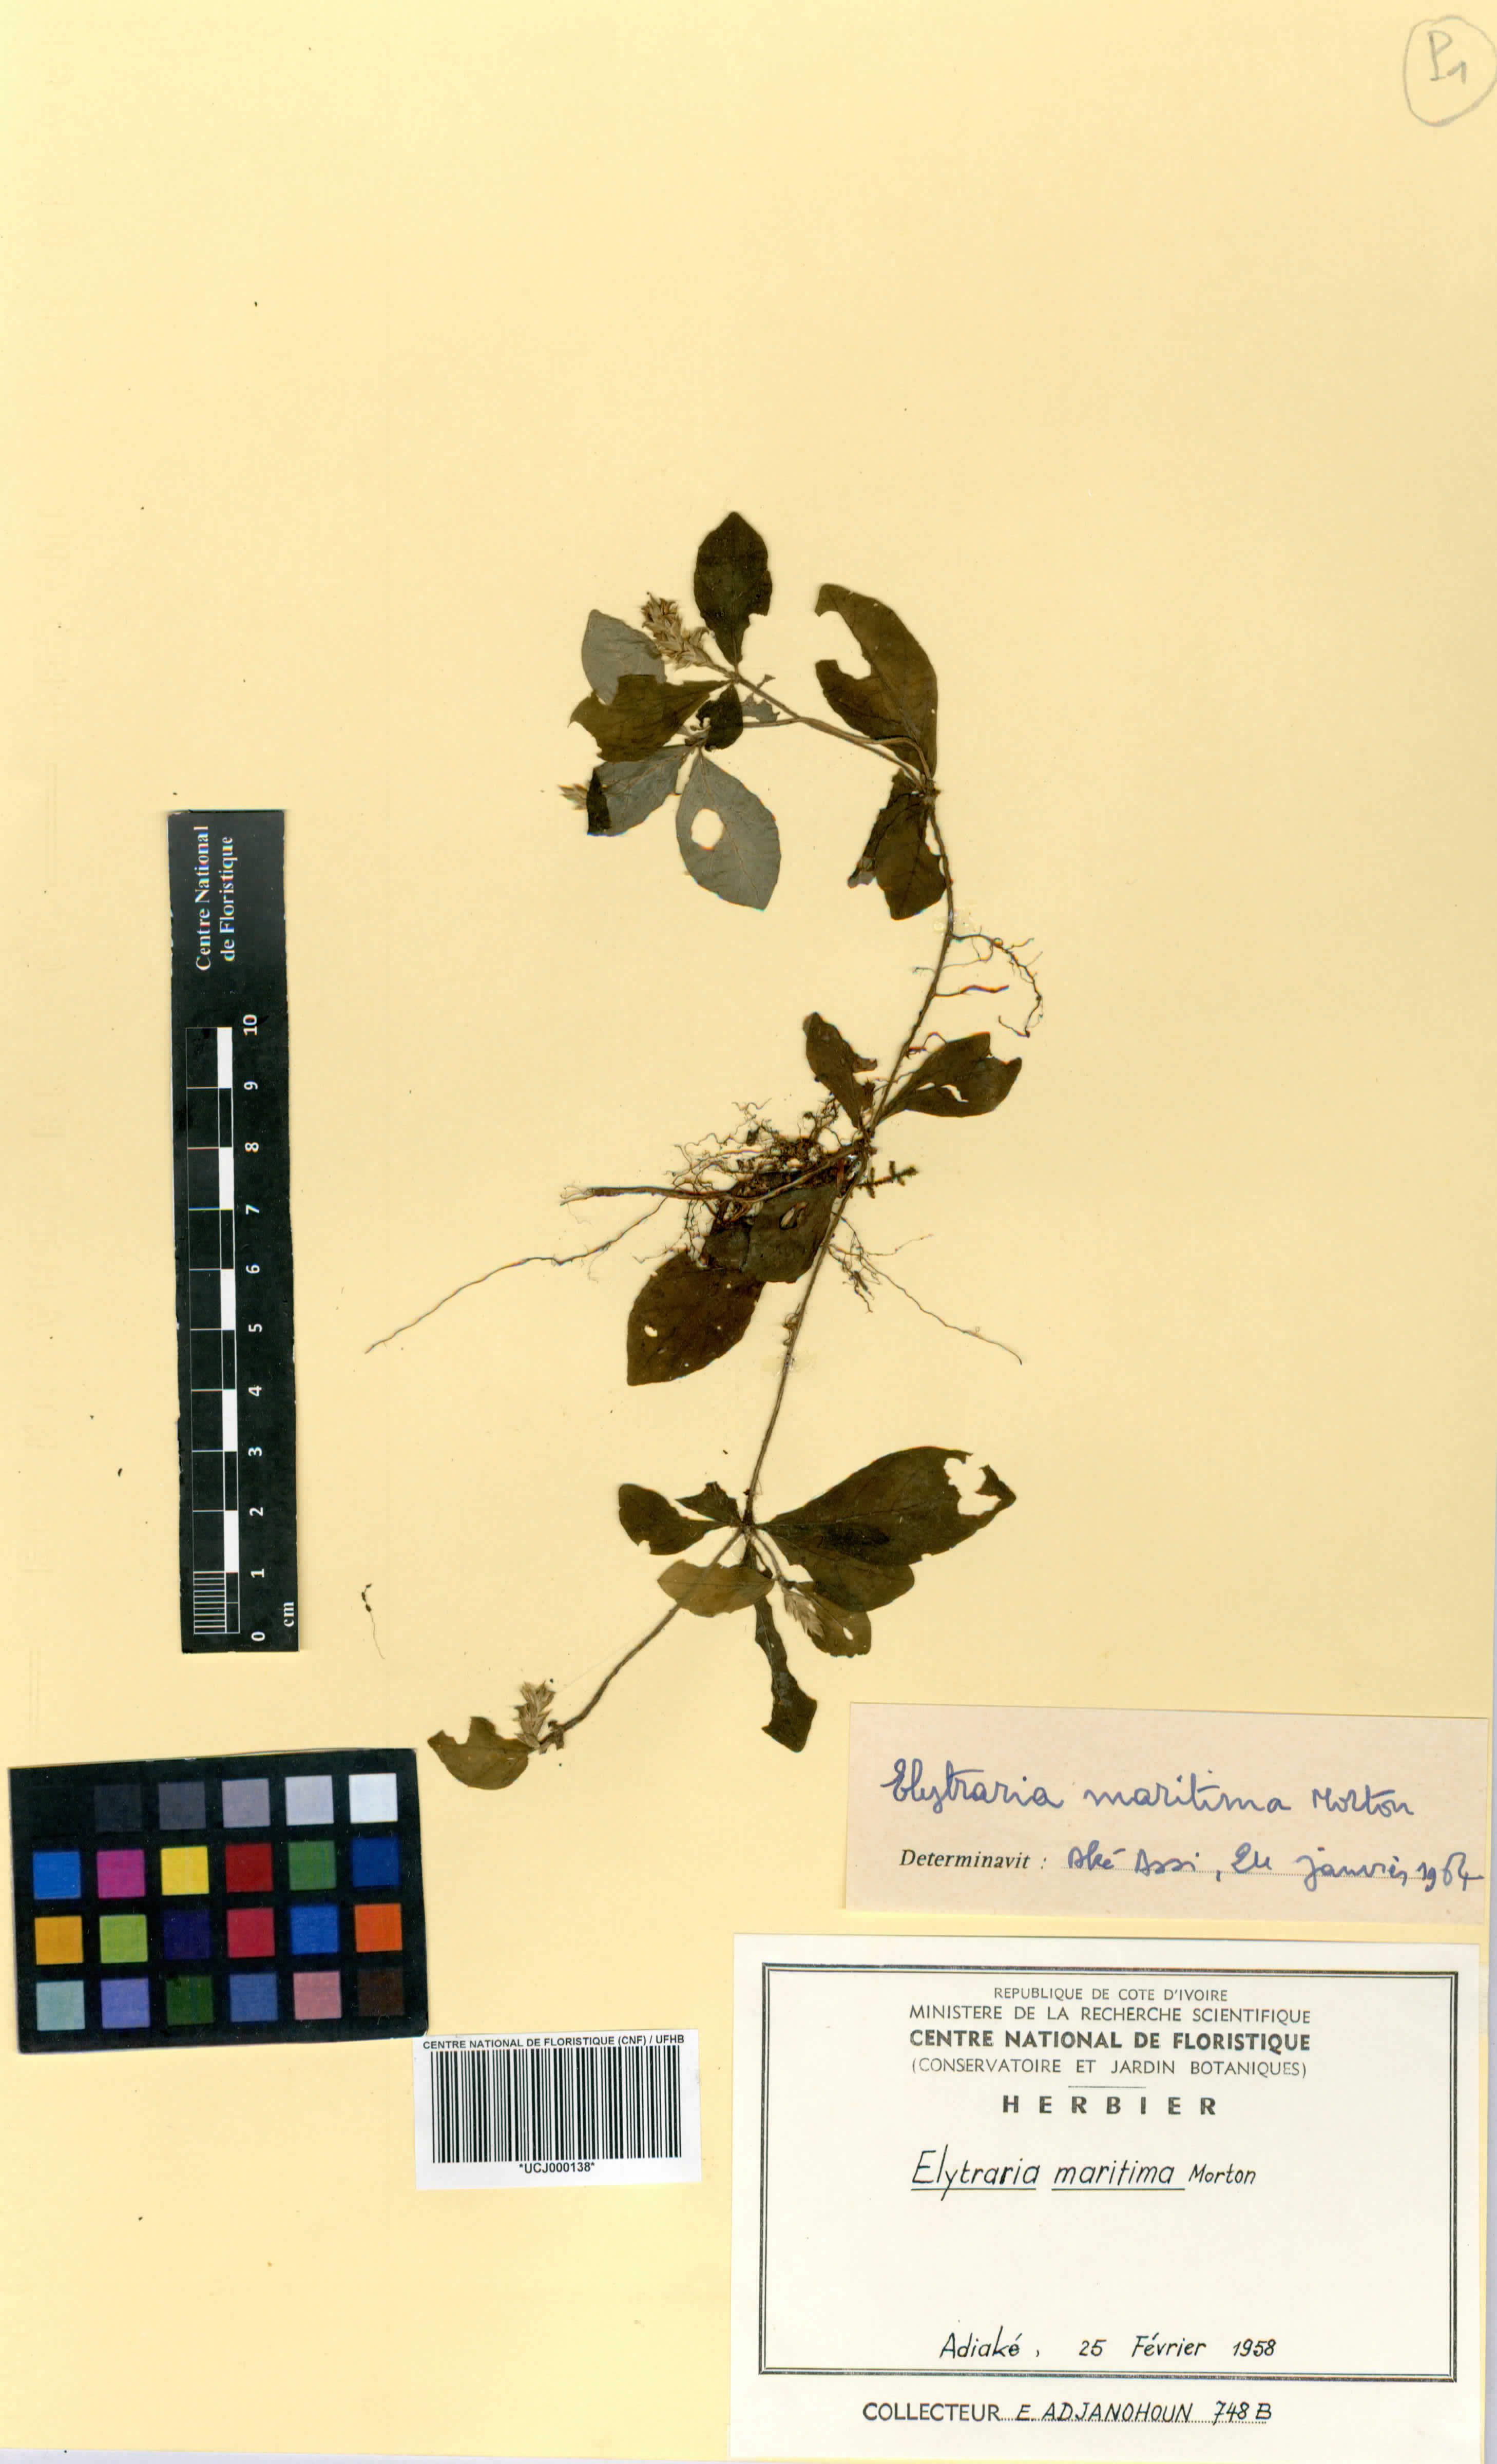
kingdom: Plantae
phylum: Tracheophyta
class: Magnoliopsida
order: Lamiales
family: Acanthaceae
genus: Elytraria
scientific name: Elytraria maritima
